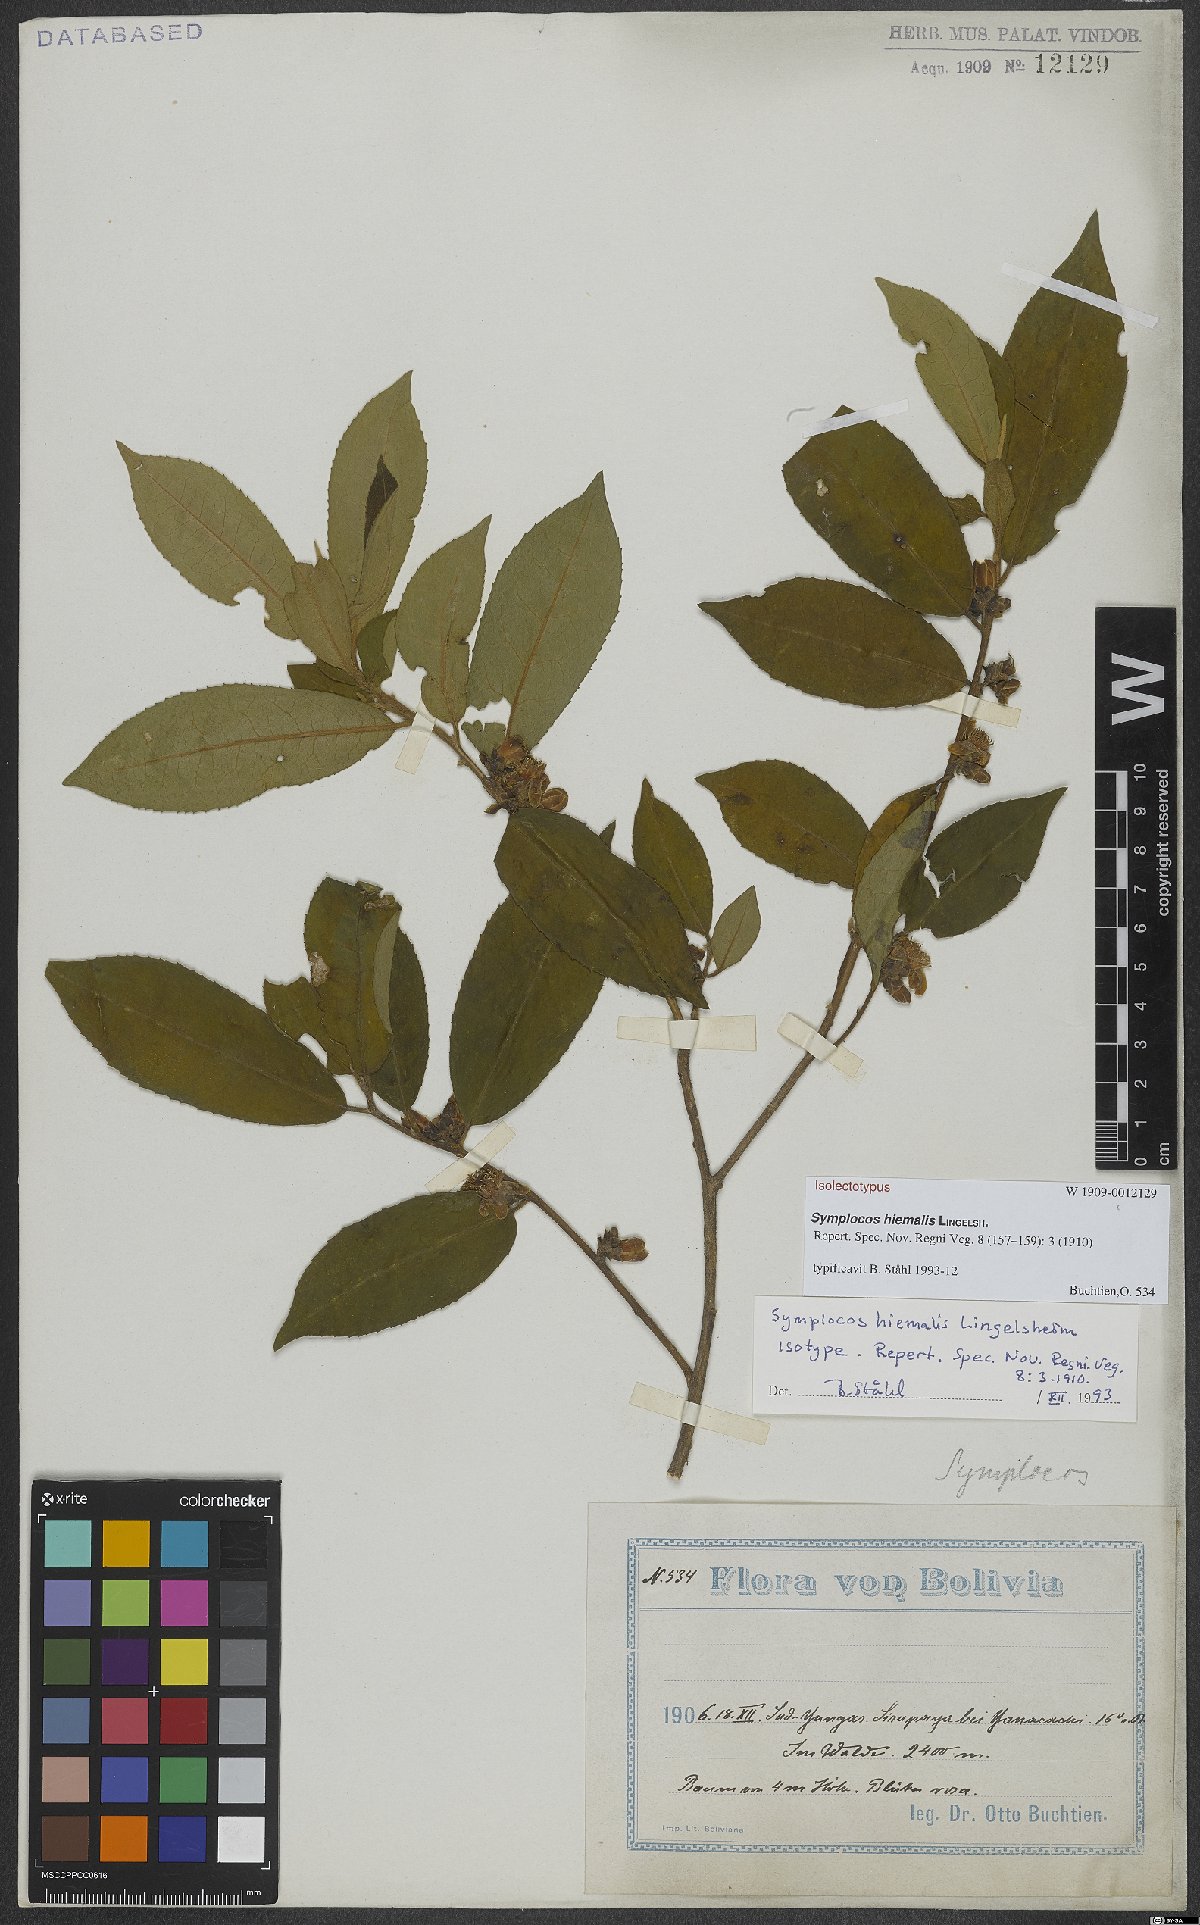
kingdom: Plantae
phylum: Tracheophyta
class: Magnoliopsida
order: Ericales
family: Symplocaceae
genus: Symplocos
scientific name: Symplocos hiemalis
